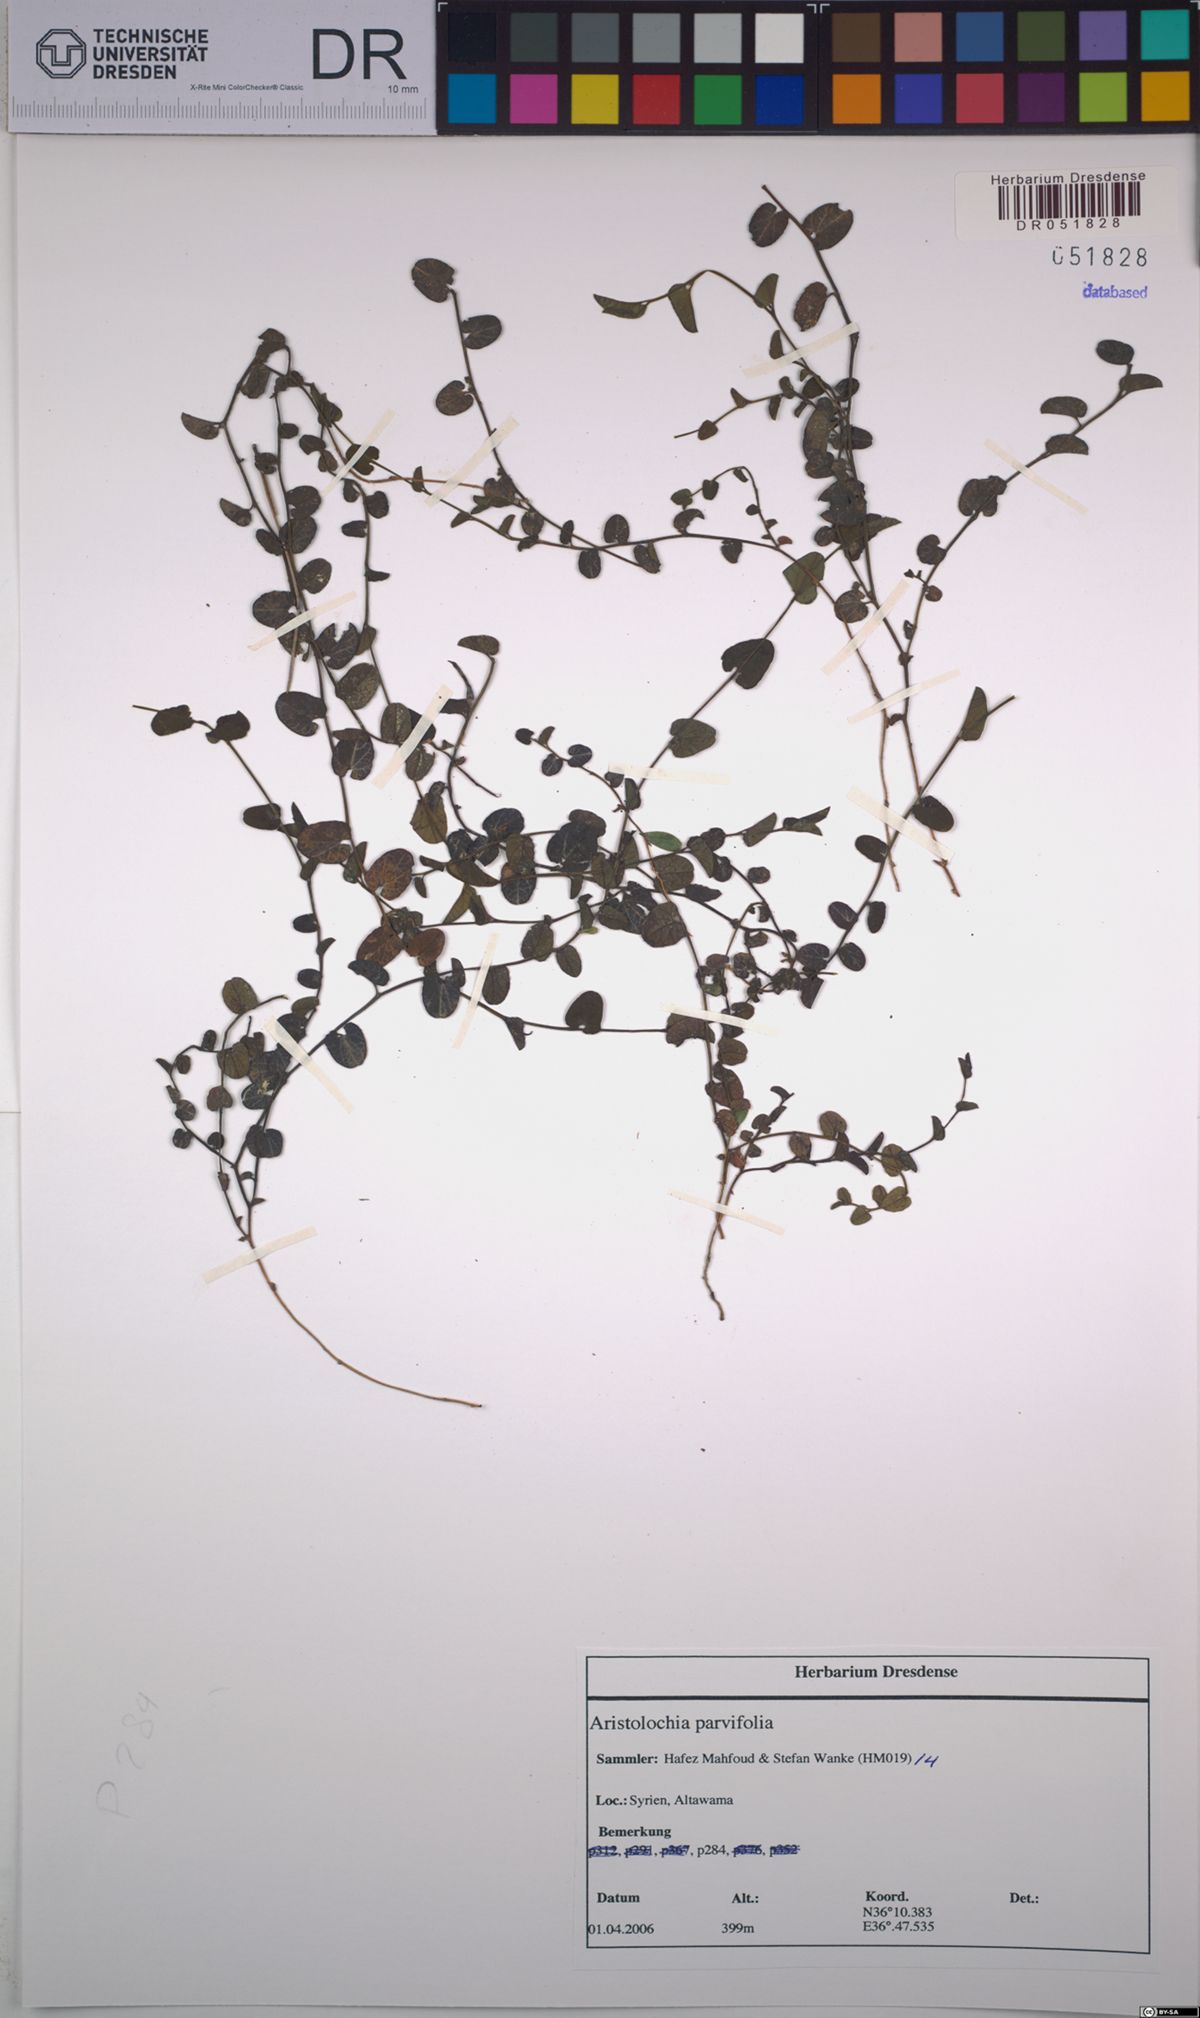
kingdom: Plantae
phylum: Tracheophyta
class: Magnoliopsida
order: Piperales
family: Aristolochiaceae
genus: Aristolochia
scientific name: Aristolochia parvifolia
